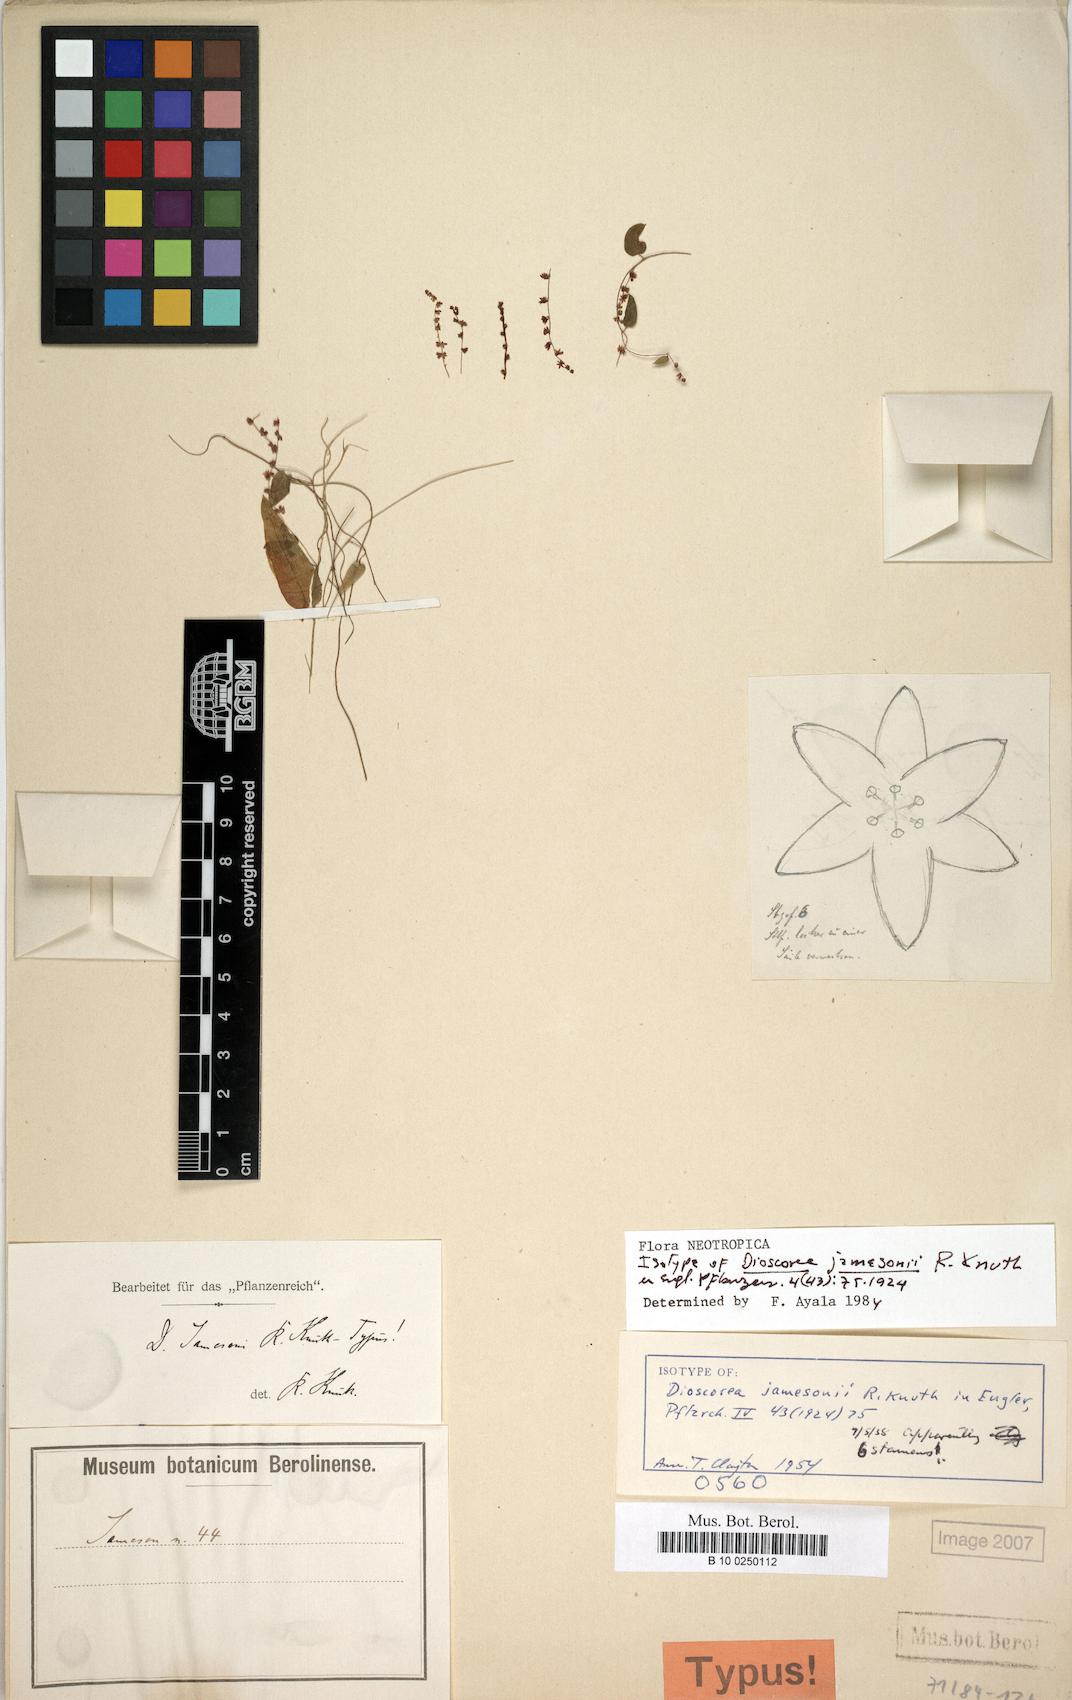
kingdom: Plantae
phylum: Tracheophyta
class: Liliopsida
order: Dioscoreales
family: Dioscoreaceae
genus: Dioscorea
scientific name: Dioscorea jamesonii
